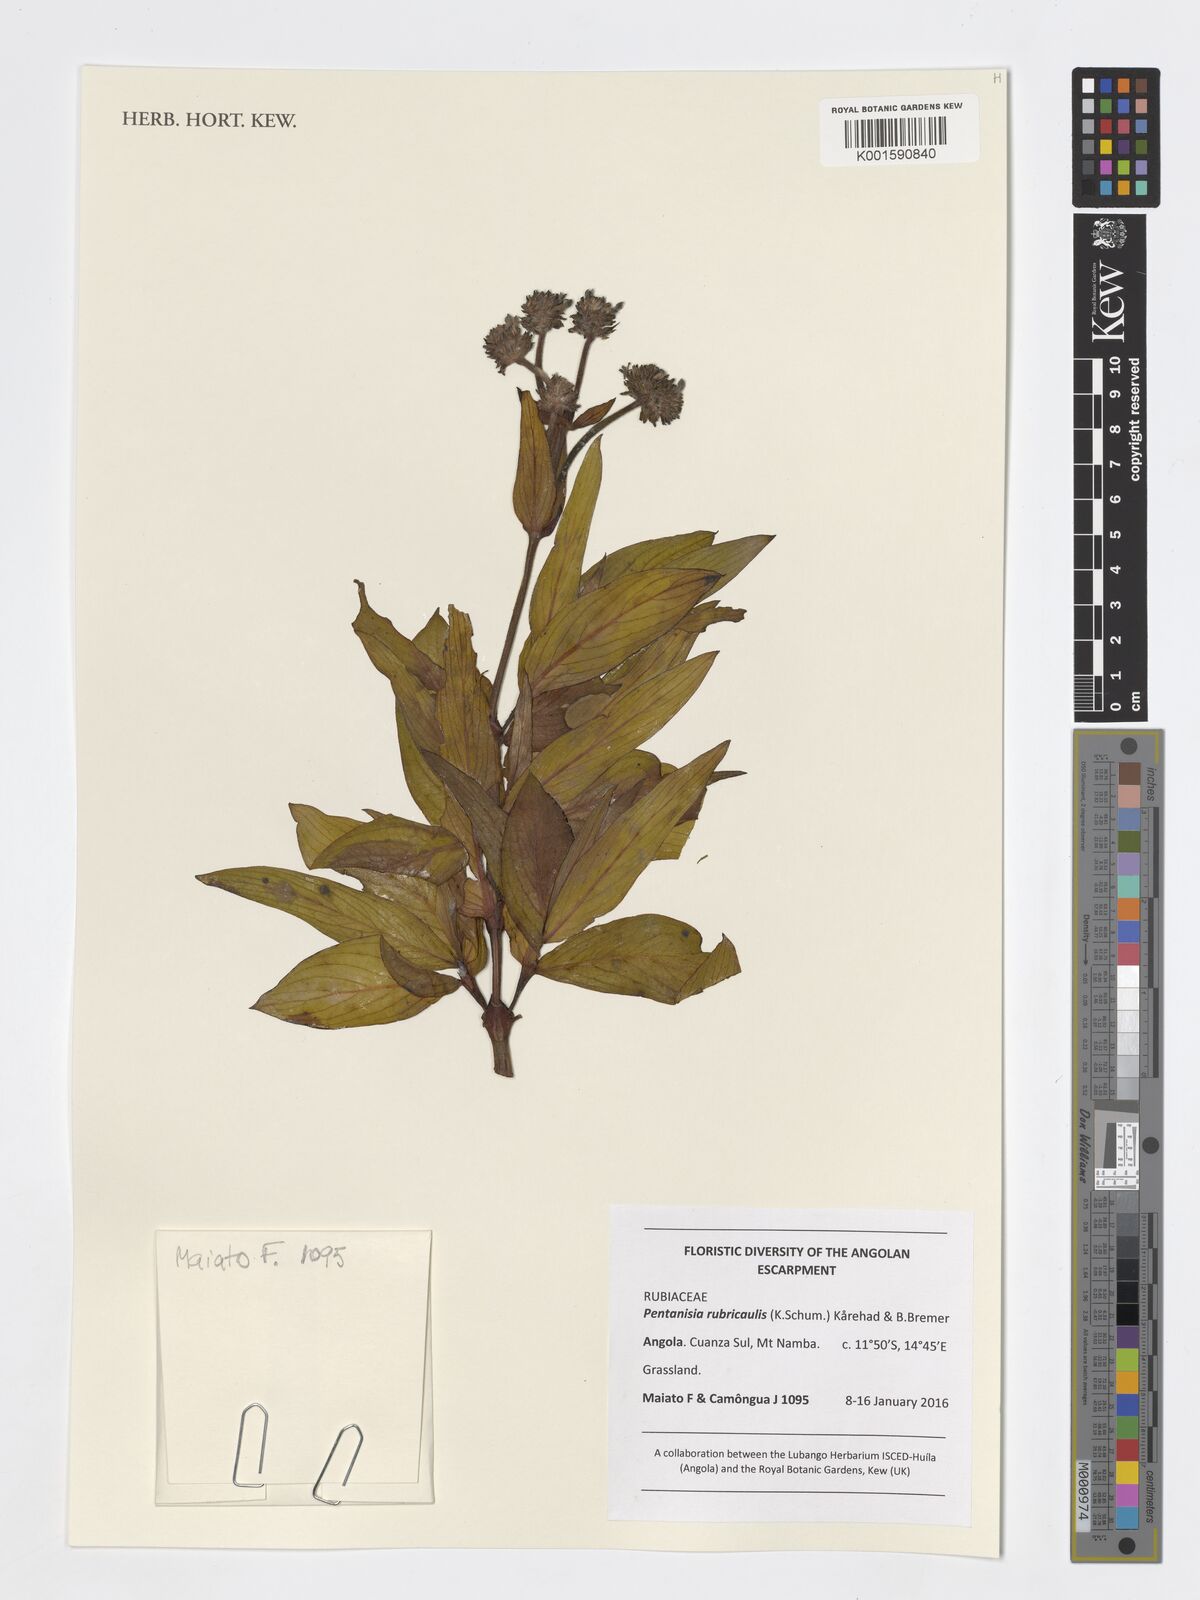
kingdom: Plantae
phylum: Tracheophyta
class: Magnoliopsida
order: Gentianales
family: Rubiaceae
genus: Pentanisia
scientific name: Pentanisia rubricaulis
